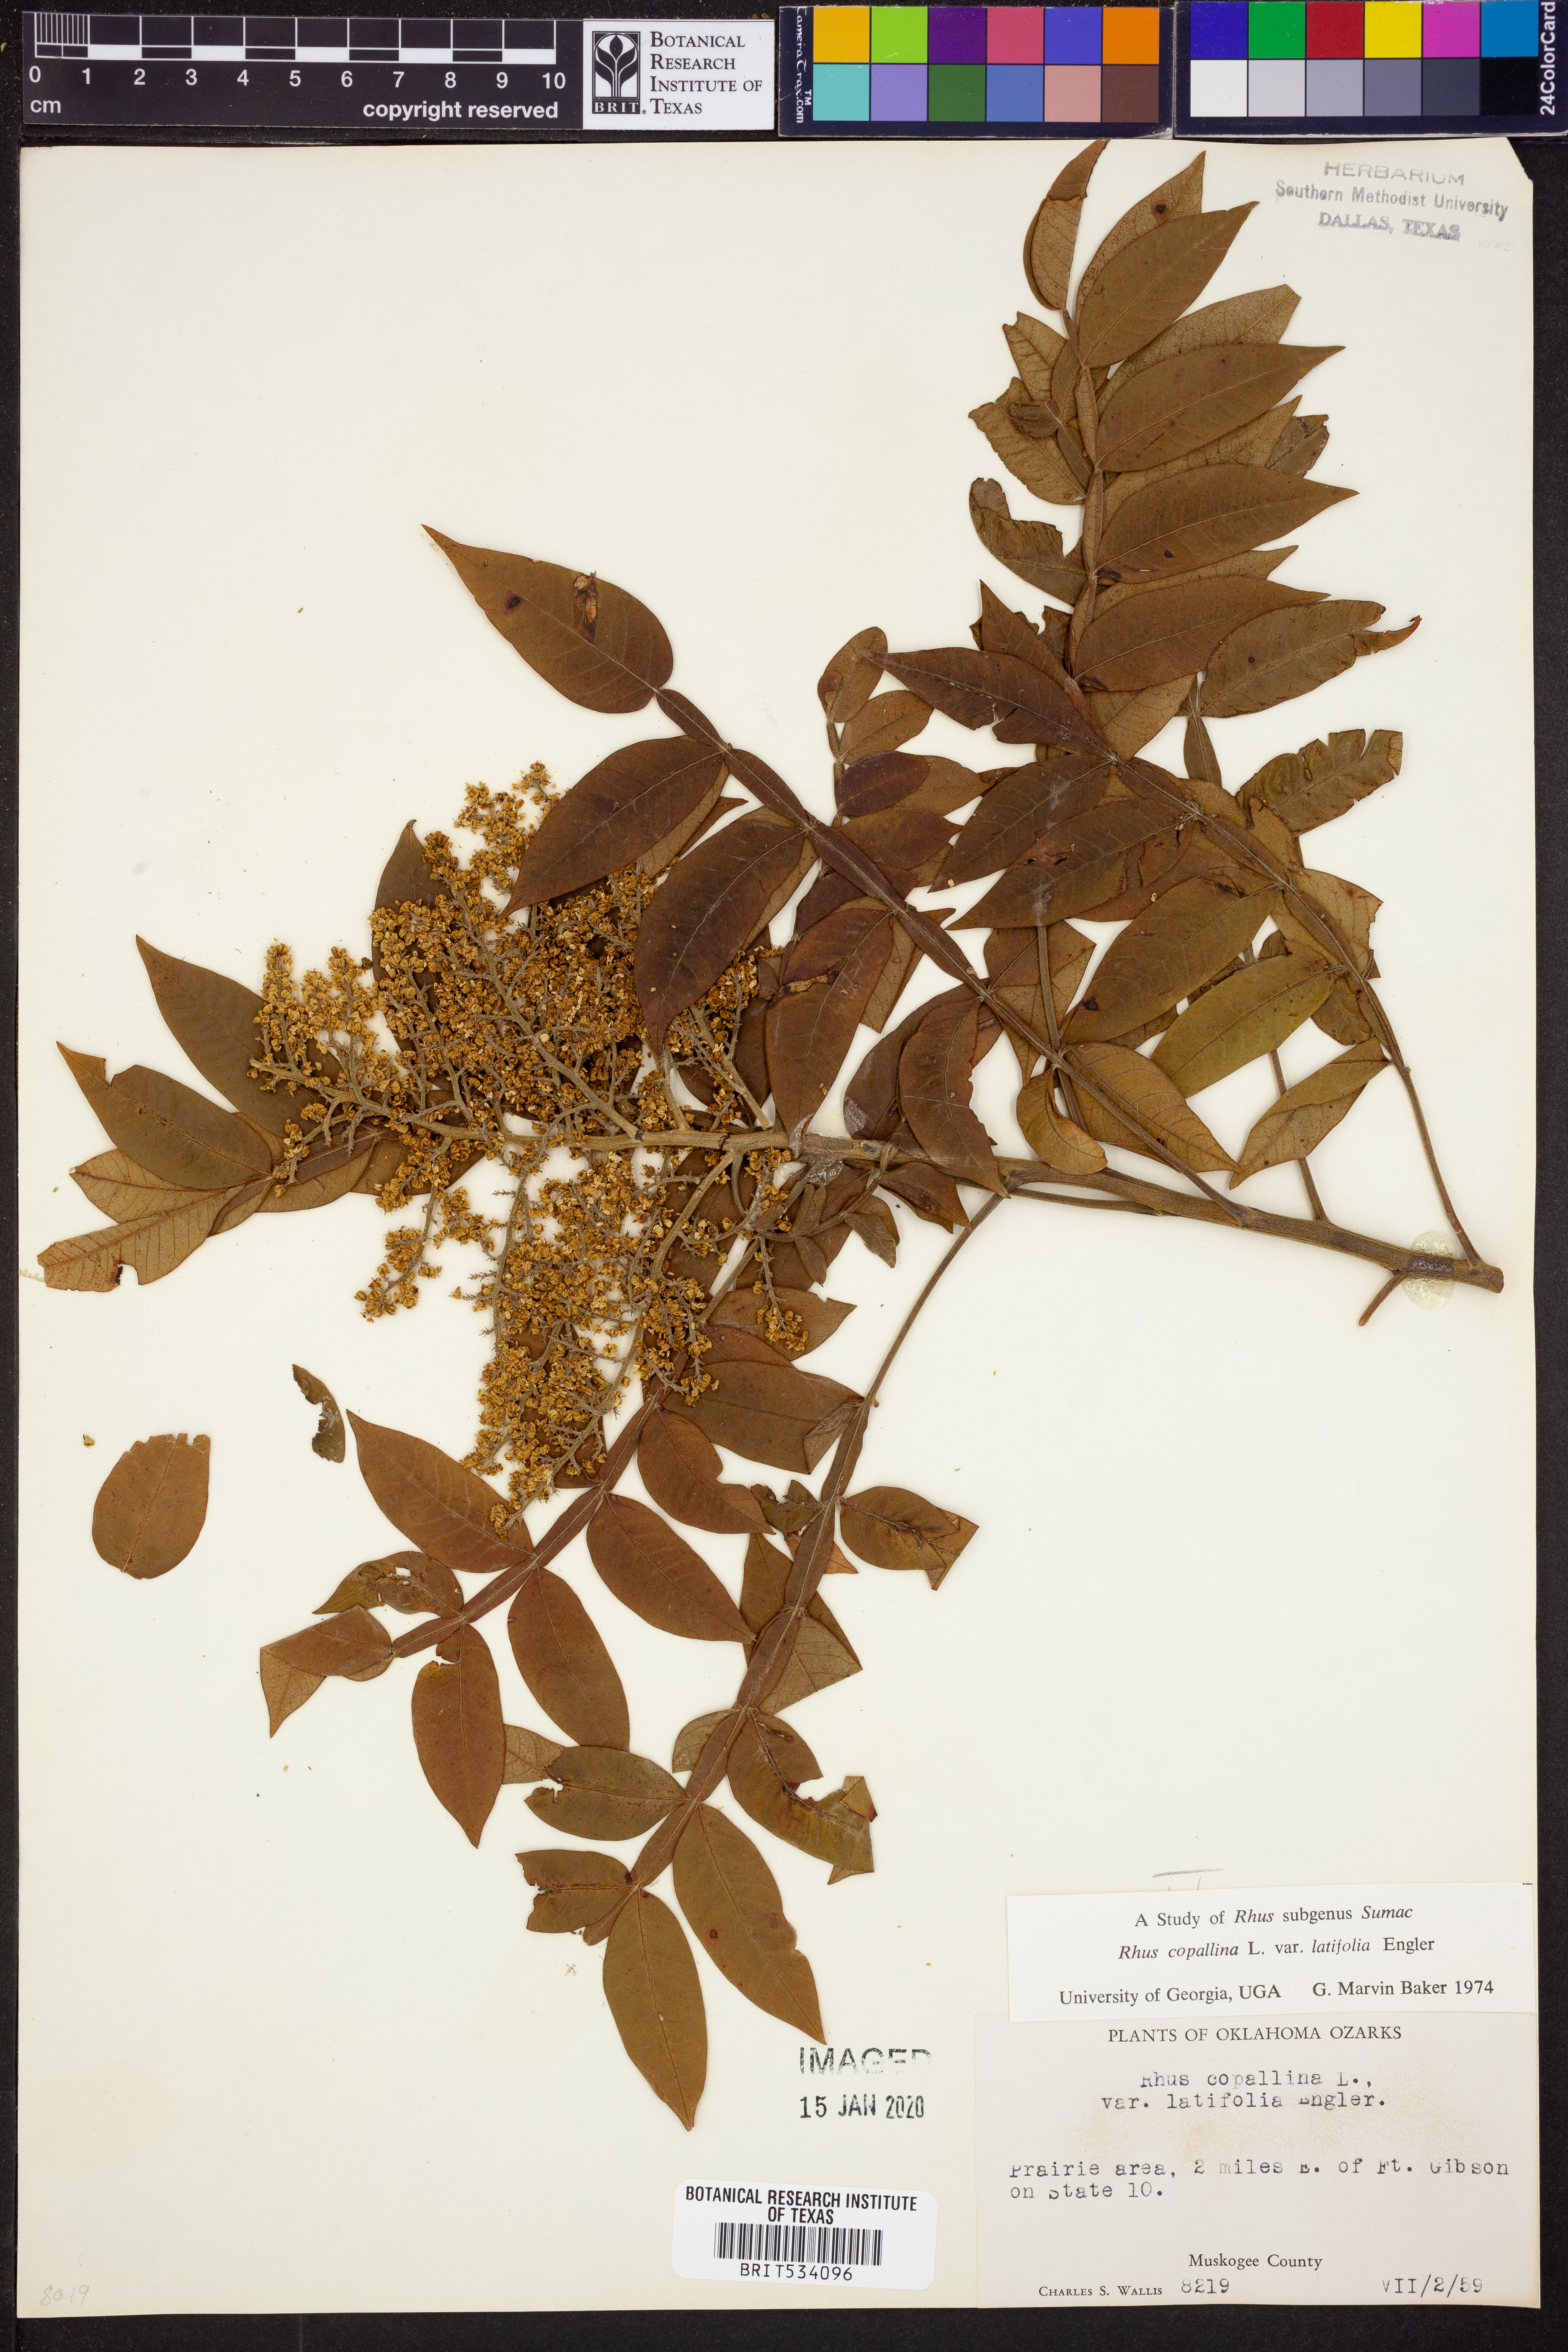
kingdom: Plantae
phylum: Tracheophyta
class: Magnoliopsida
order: Sapindales
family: Anacardiaceae
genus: Rhus
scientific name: Rhus copallina
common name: Shining sumac
